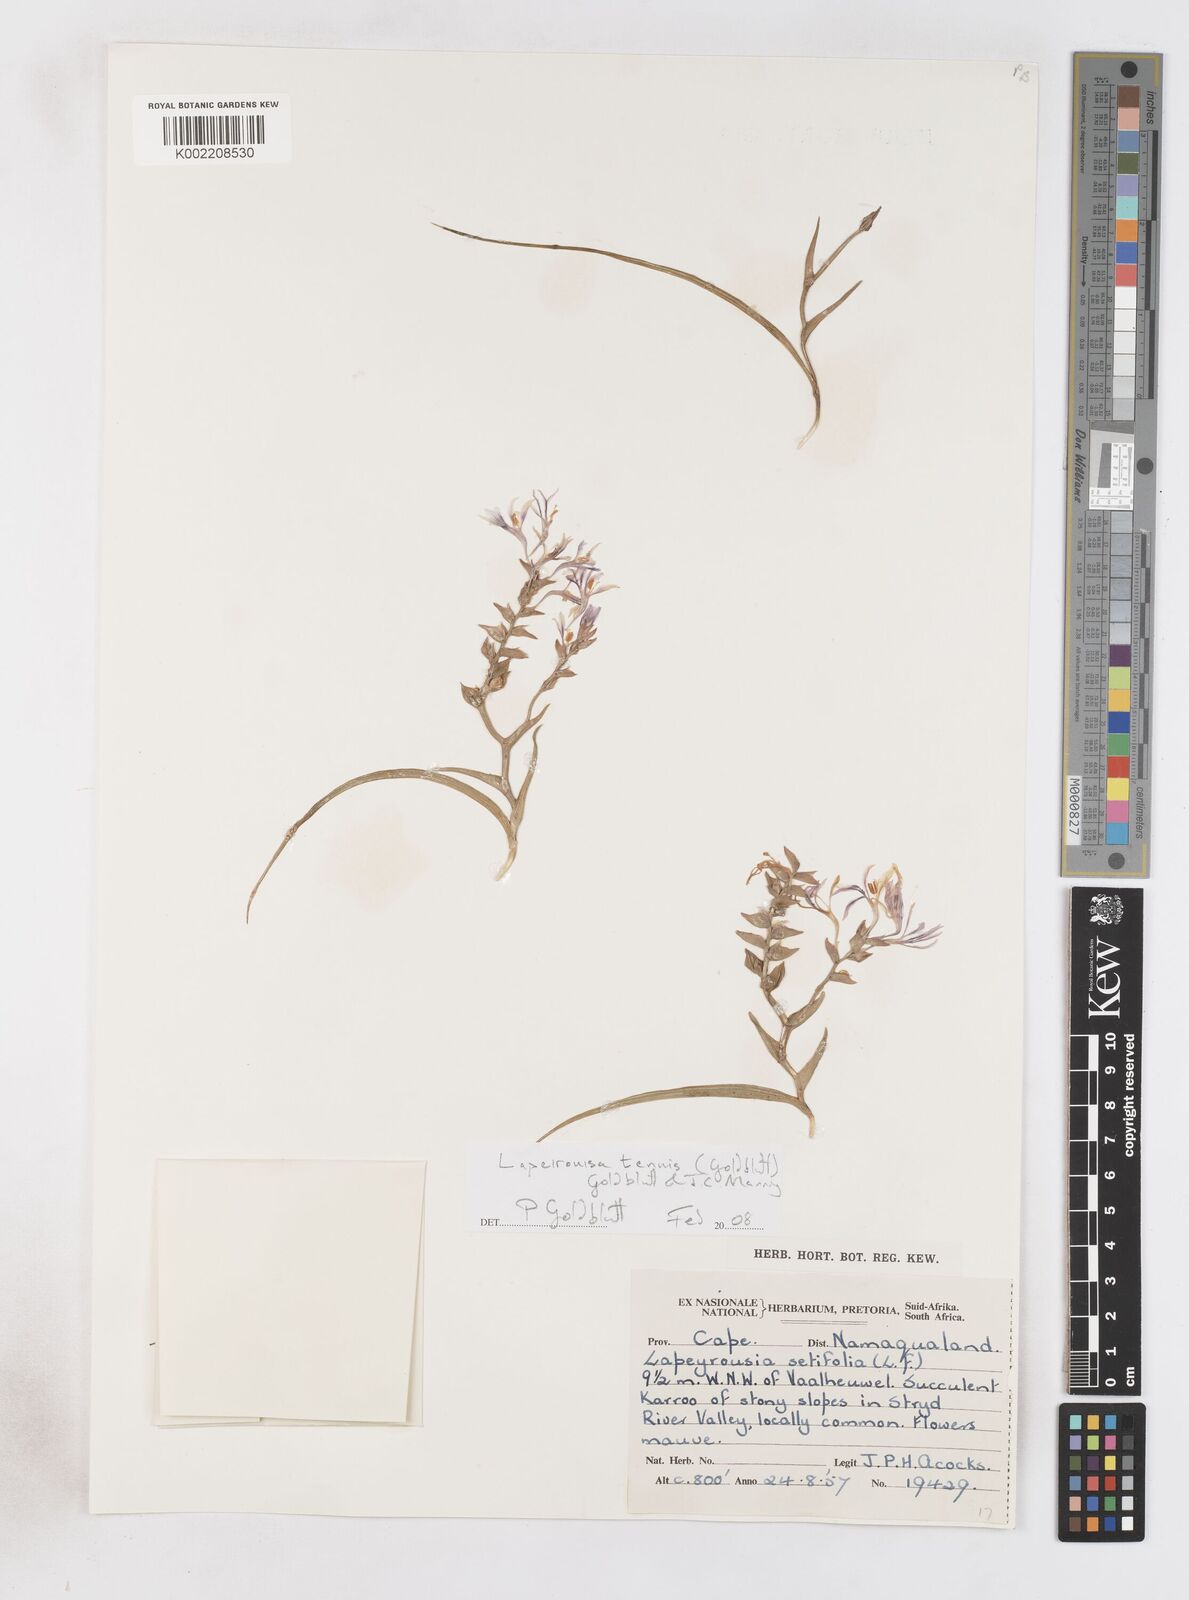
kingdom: Plantae
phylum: Tracheophyta
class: Liliopsida
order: Asparagales
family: Iridaceae
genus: Lapeirousia
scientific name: Lapeirousia tenuis
